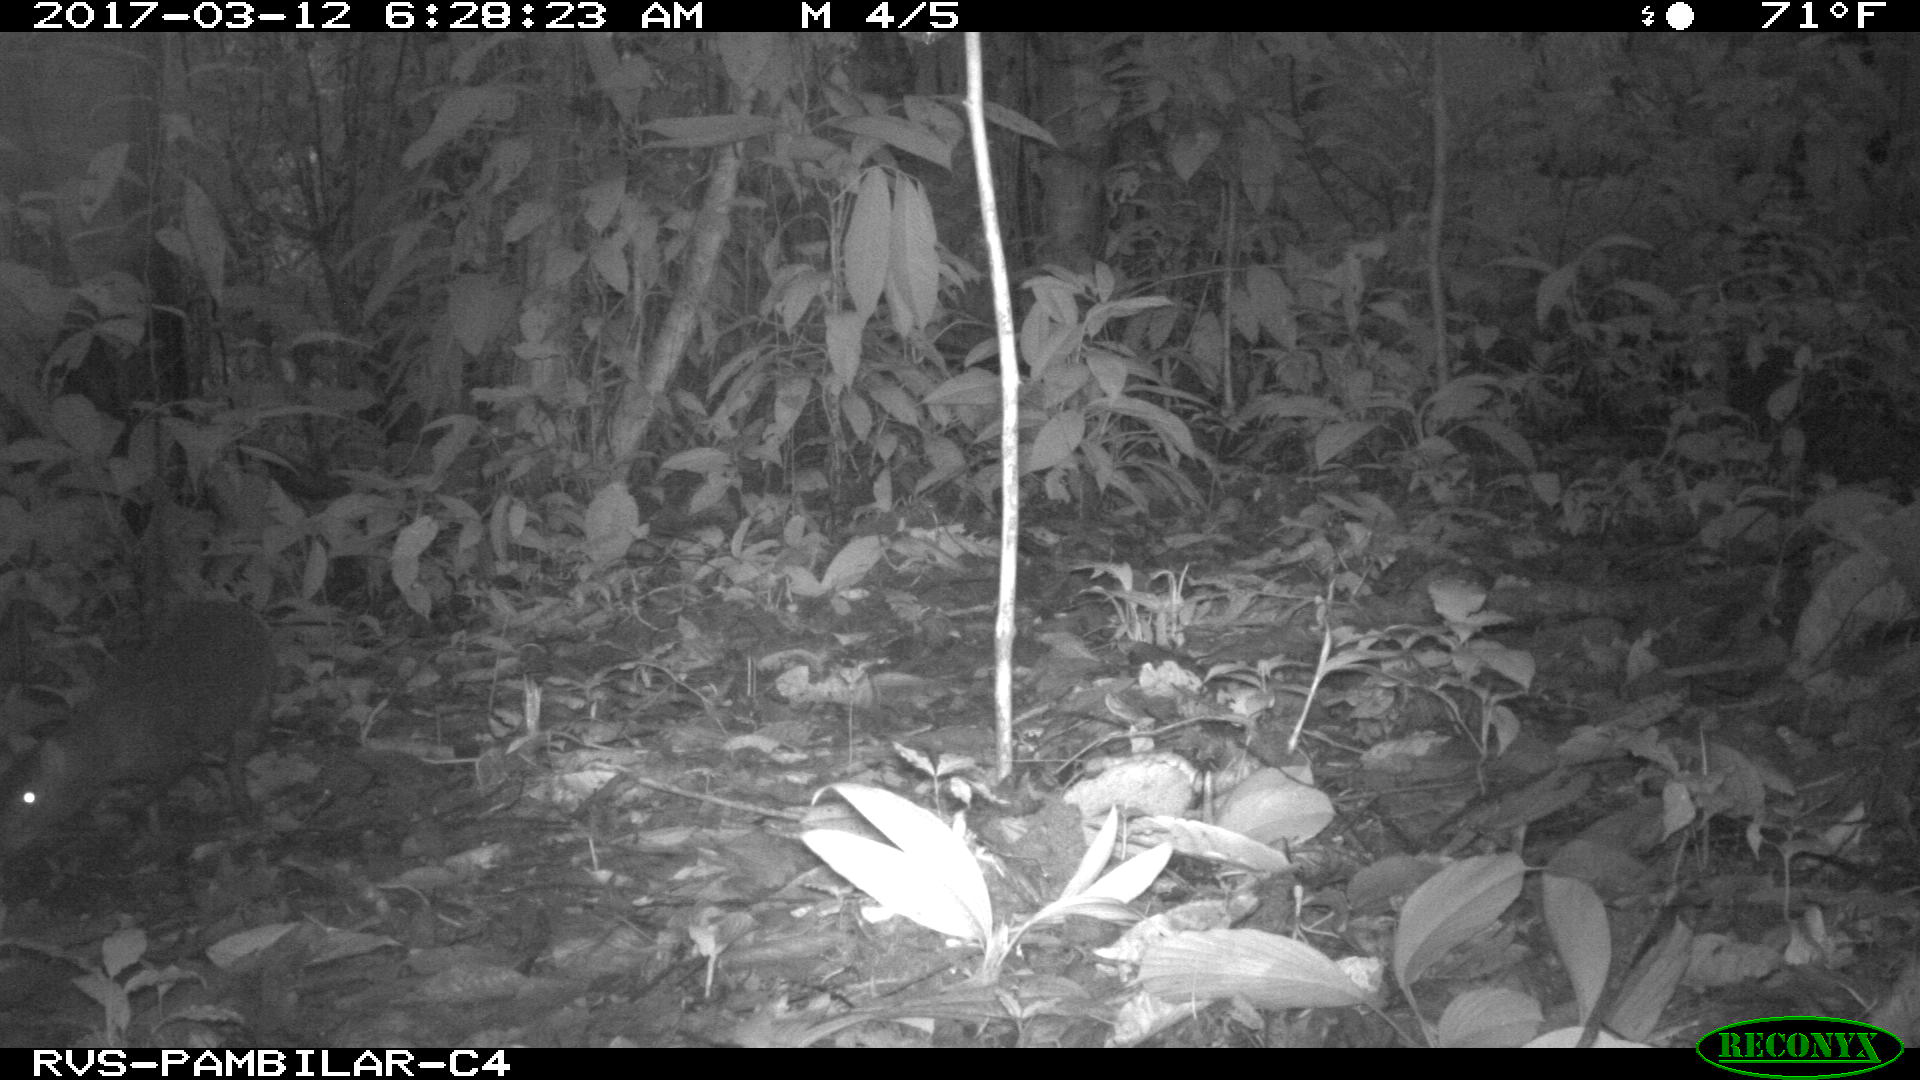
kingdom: Animalia
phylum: Chordata
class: Mammalia
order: Rodentia
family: Dasyproctidae
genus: Dasyprocta
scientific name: Dasyprocta punctata
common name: Central american agouti
